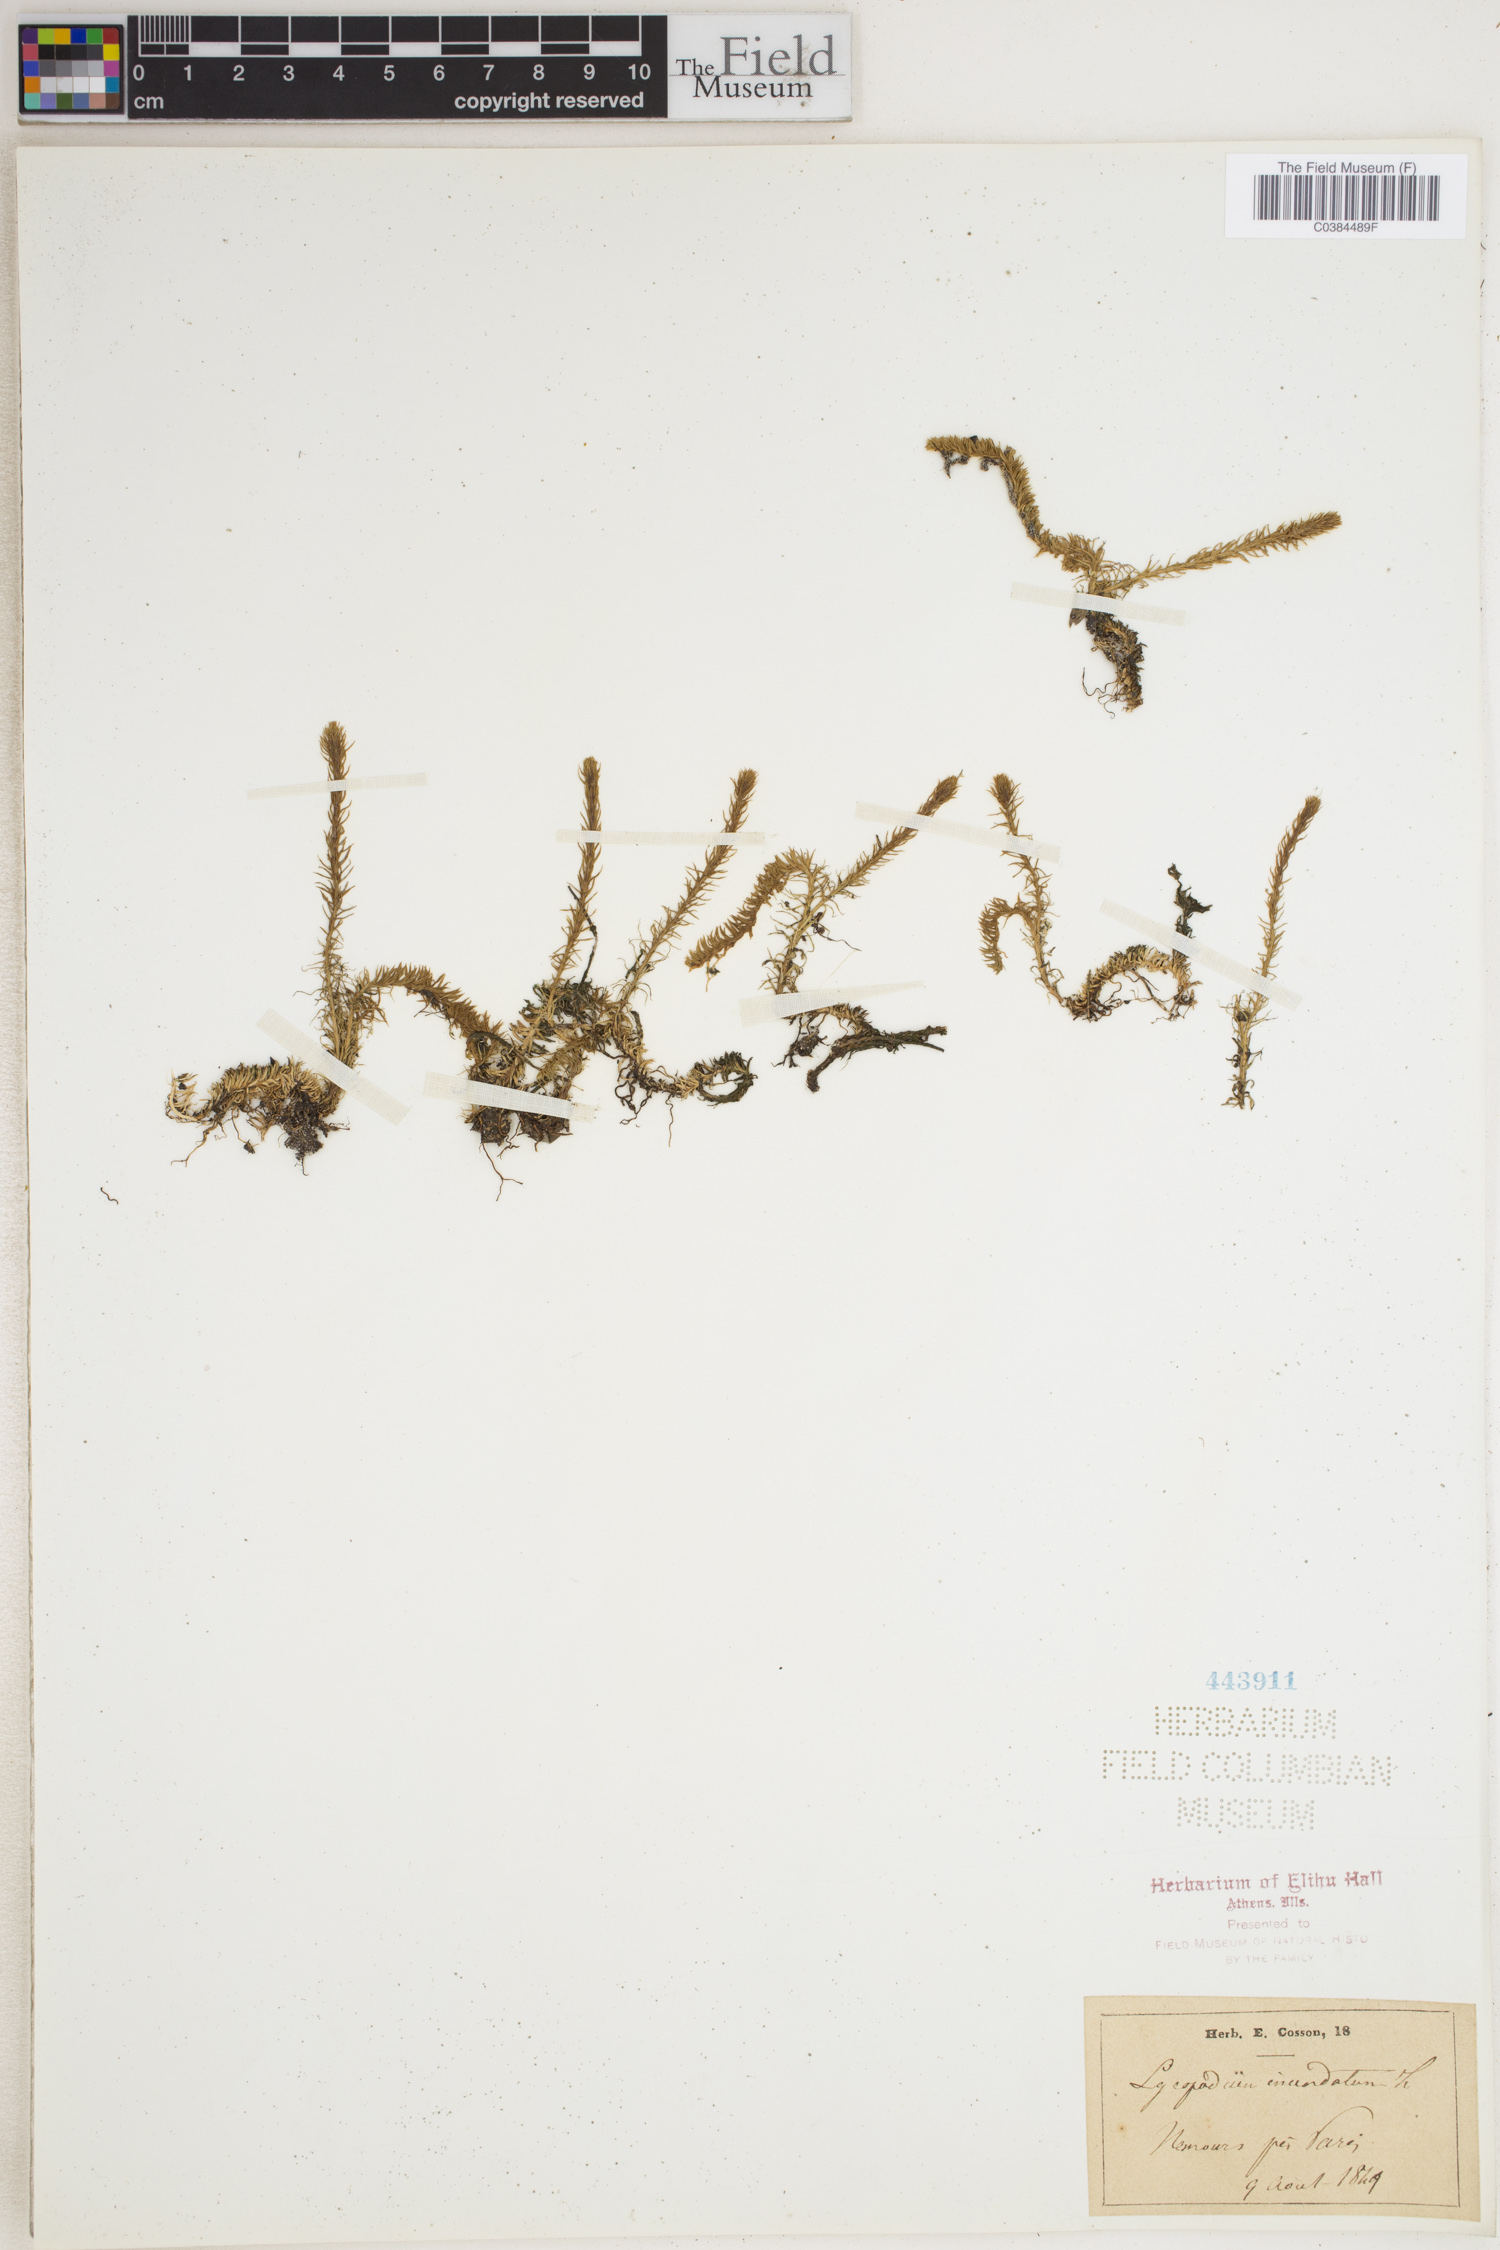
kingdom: Plantae
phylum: Tracheophyta
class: Lycopodiopsida
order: Lycopodiales
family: Lycopodiaceae
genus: Lycopodiella
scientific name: Lycopodiella inundata
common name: Marsh clubmoss
